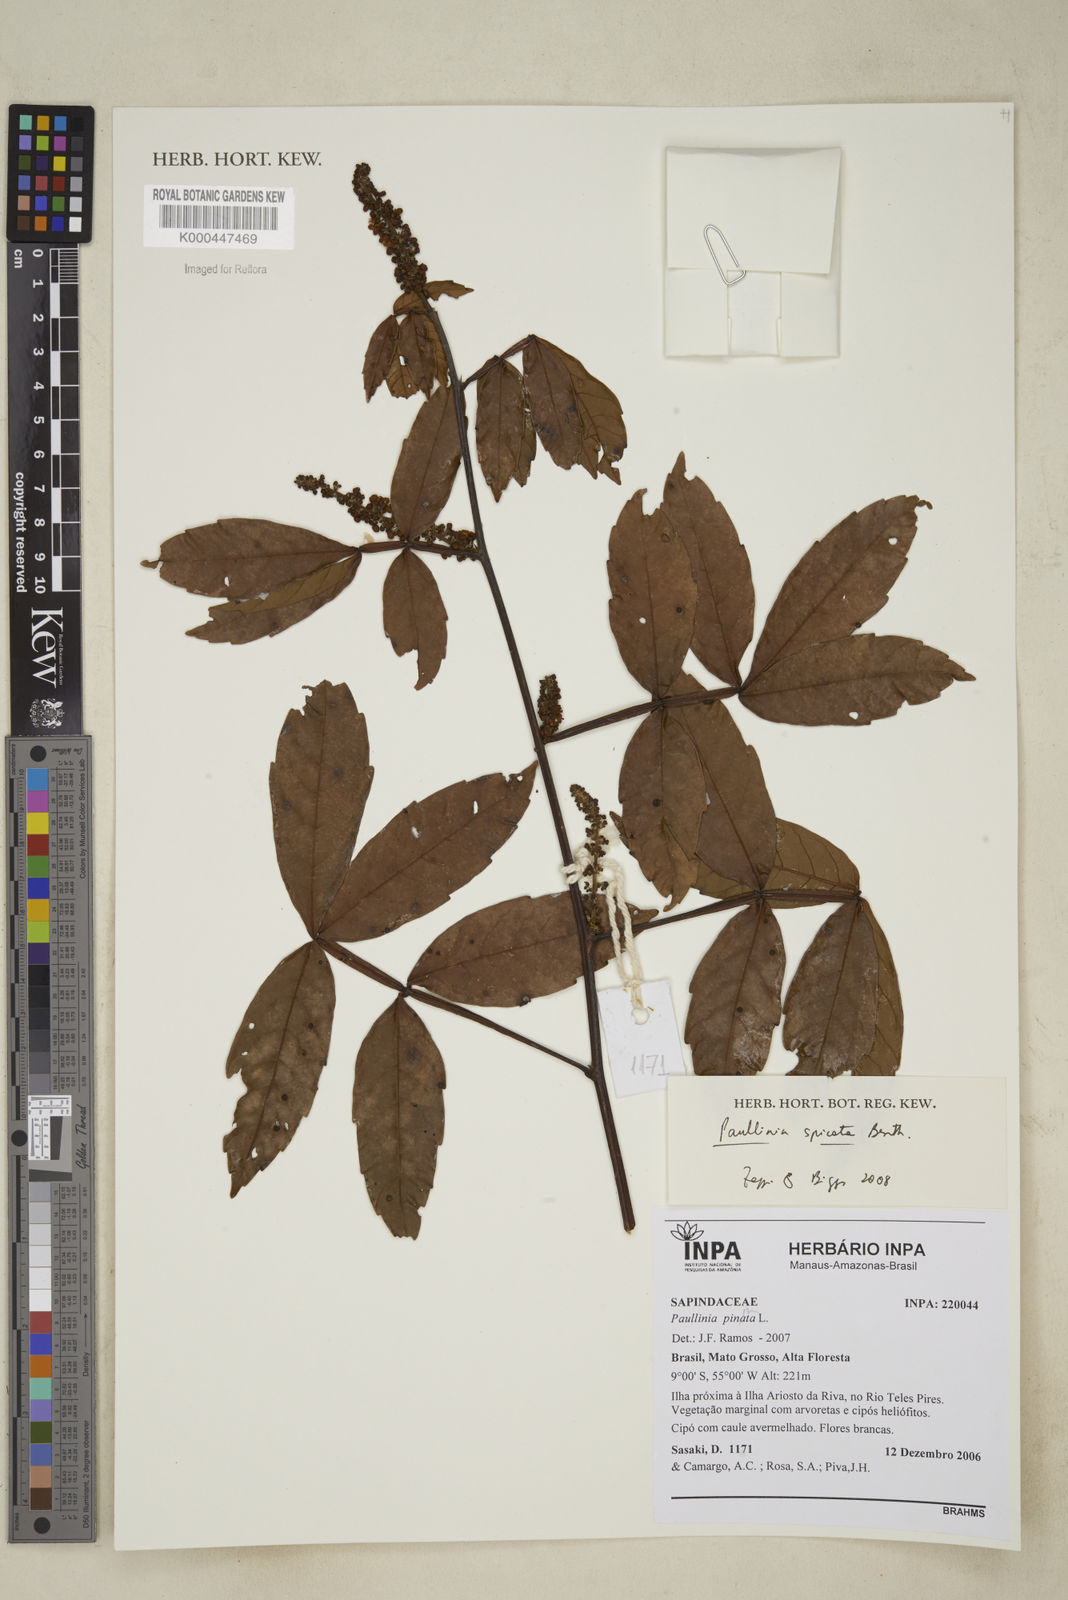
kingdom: Plantae
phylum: Tracheophyta
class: Magnoliopsida
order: Sapindales
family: Sapindaceae
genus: Paullinia
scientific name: Paullinia spicata
